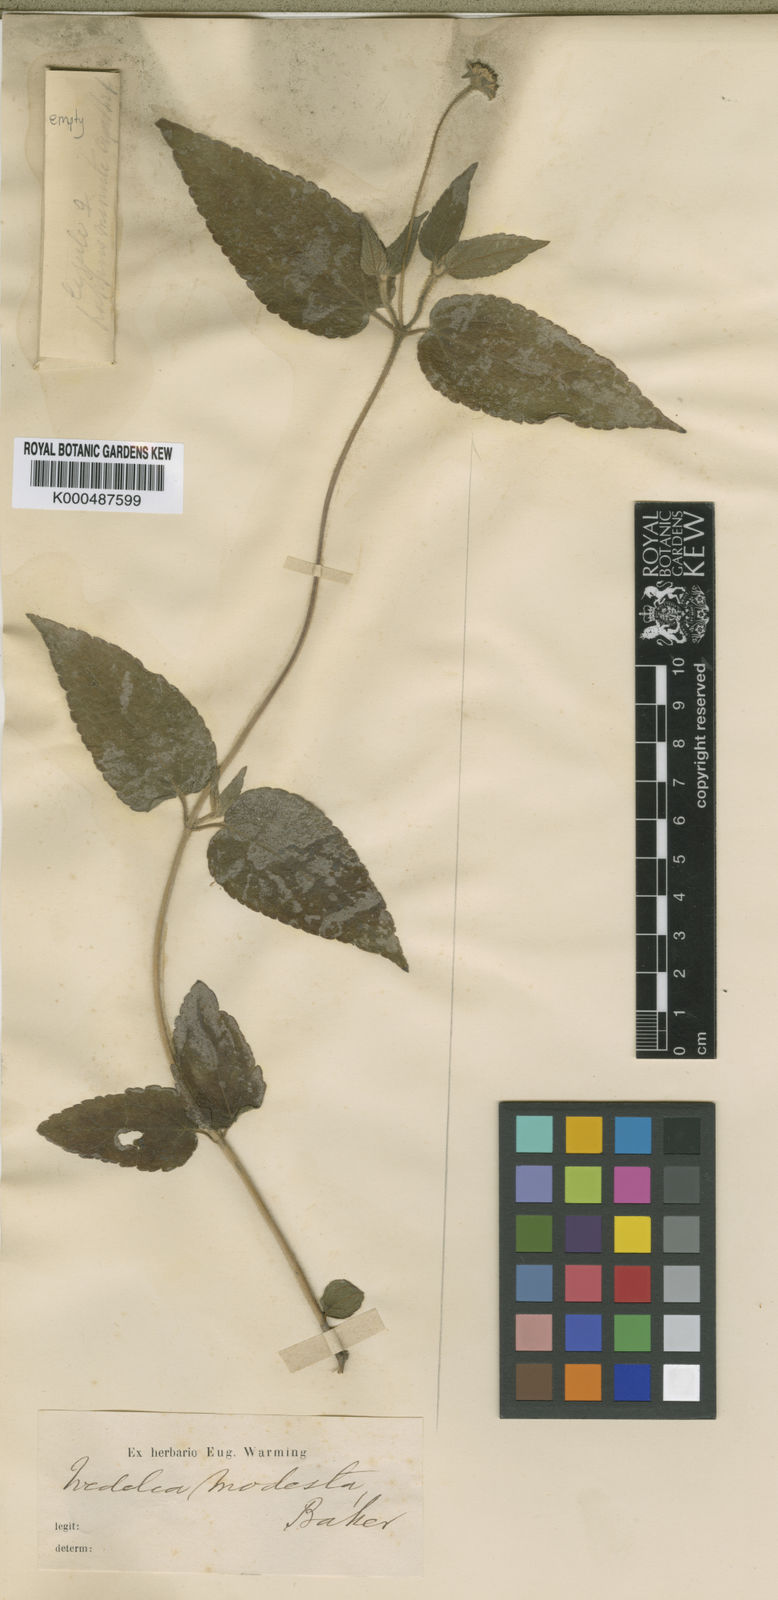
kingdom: Plantae
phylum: Tracheophyta
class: Magnoliopsida
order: Asterales
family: Asteraceae
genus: Wedelia
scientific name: Wedelia modesta
